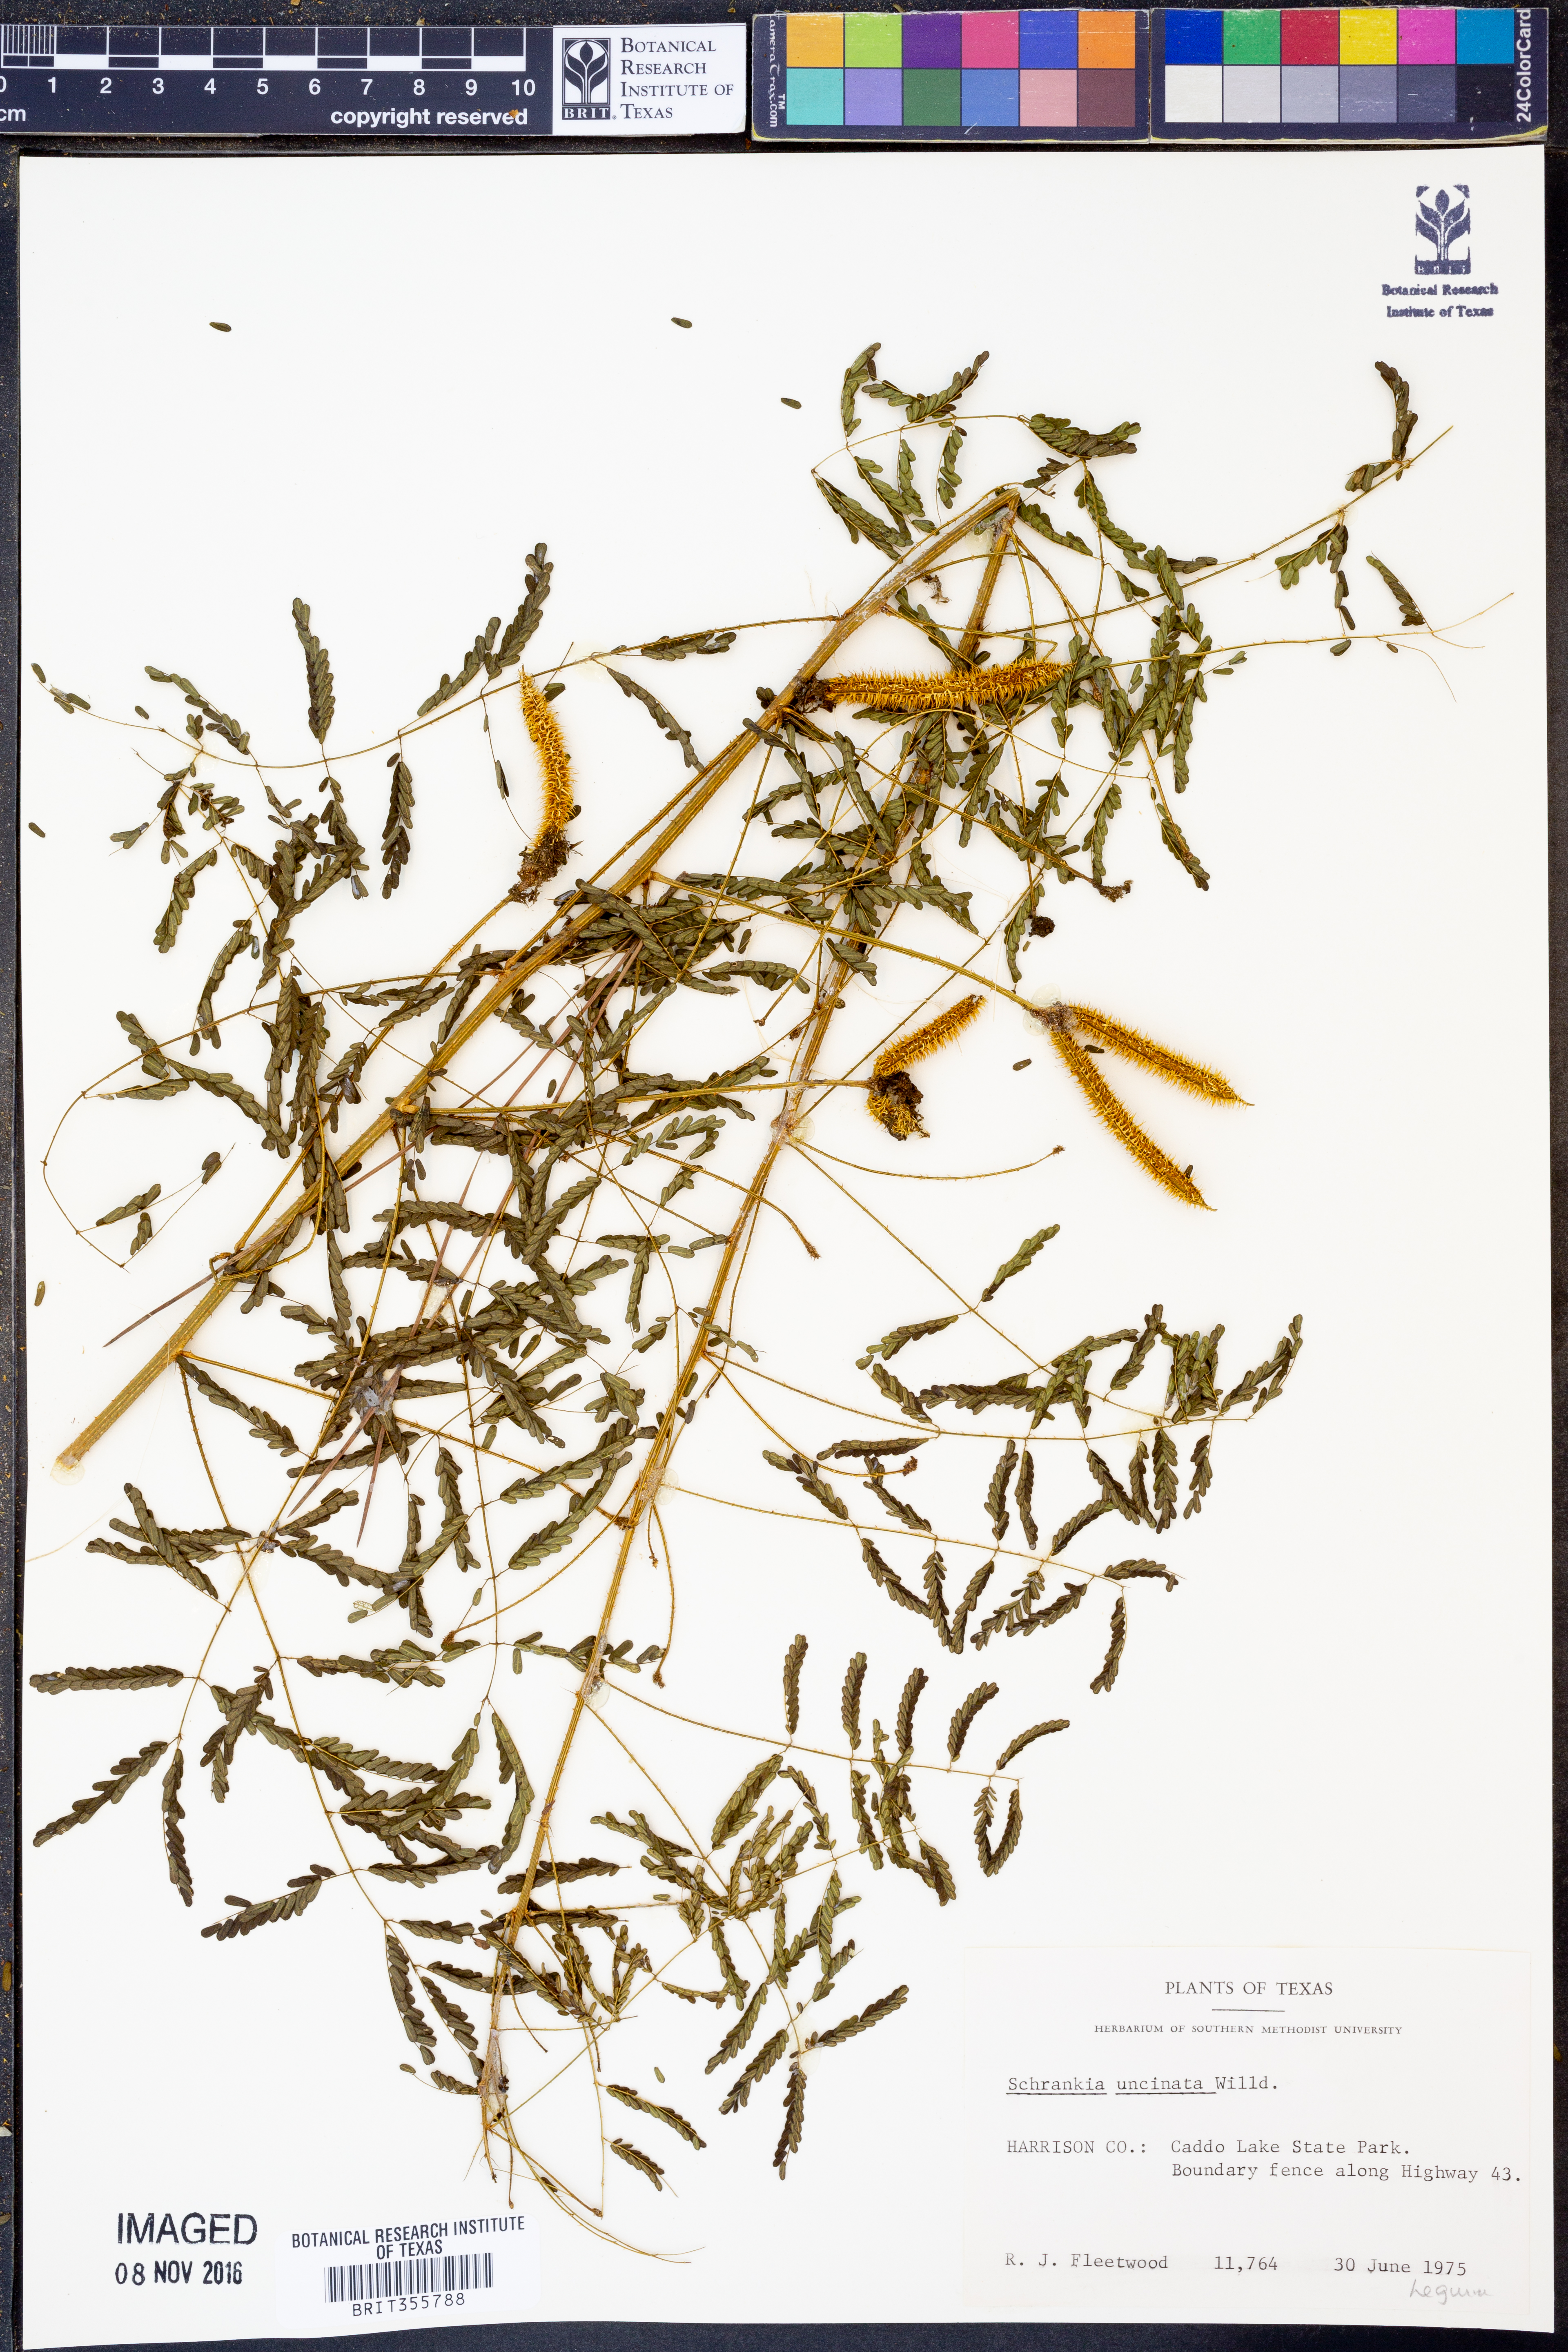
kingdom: Plantae
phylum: Tracheophyta
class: Magnoliopsida
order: Fabales
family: Fabaceae
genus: Mimosa
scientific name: Mimosa quadrivalvis
